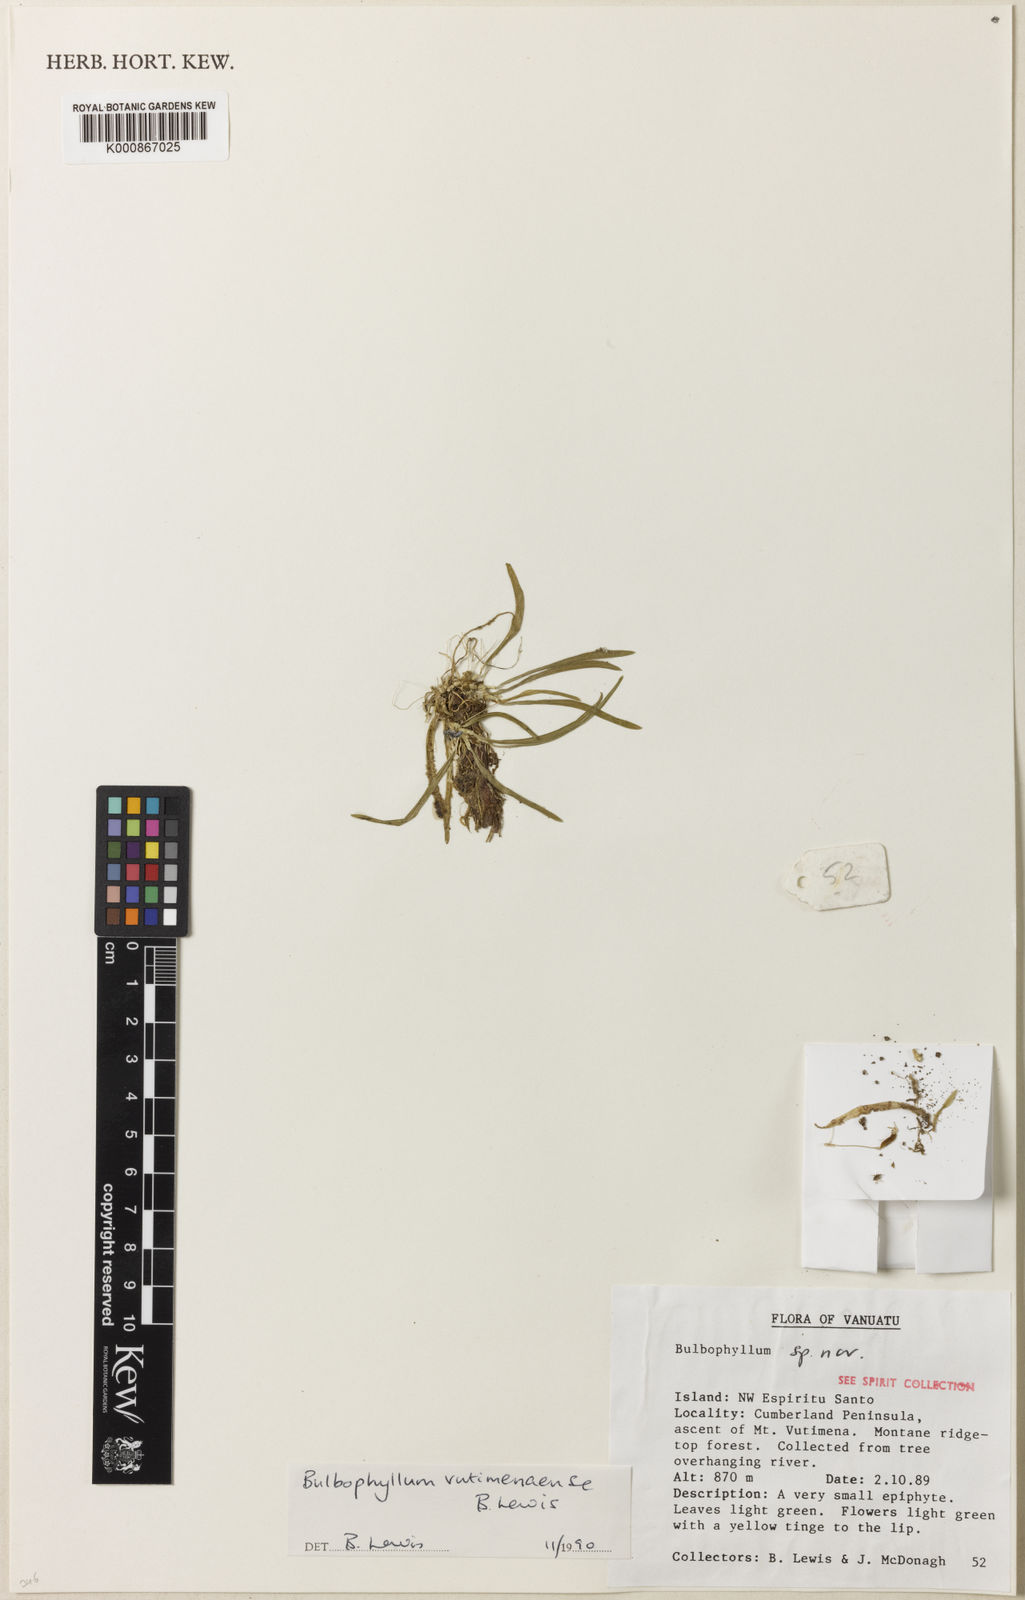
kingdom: Plantae
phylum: Tracheophyta
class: Liliopsida
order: Asparagales
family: Orchidaceae
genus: Bulbophyllum
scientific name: Bulbophyllum vutimenaense
